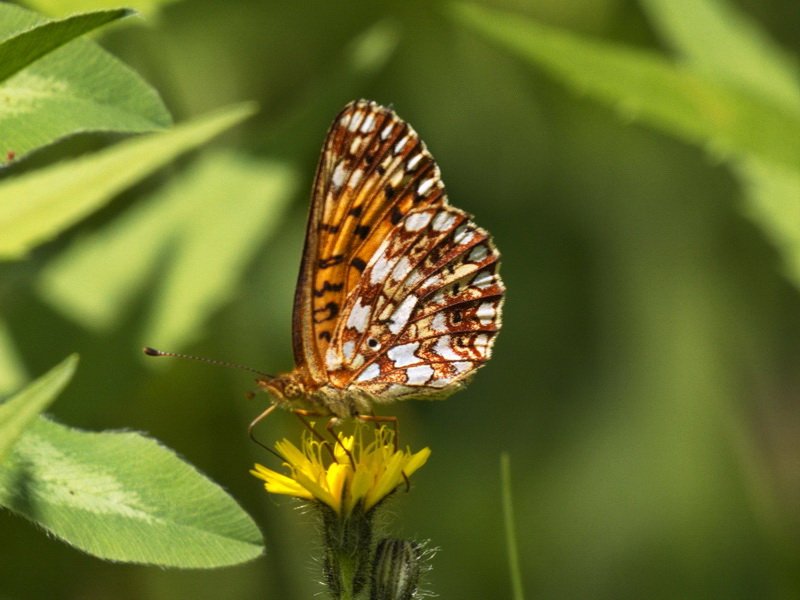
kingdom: Animalia
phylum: Arthropoda
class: Insecta
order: Lepidoptera
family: Nymphalidae
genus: Boloria
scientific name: Boloria selene
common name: Silver-bordered Fritillary
